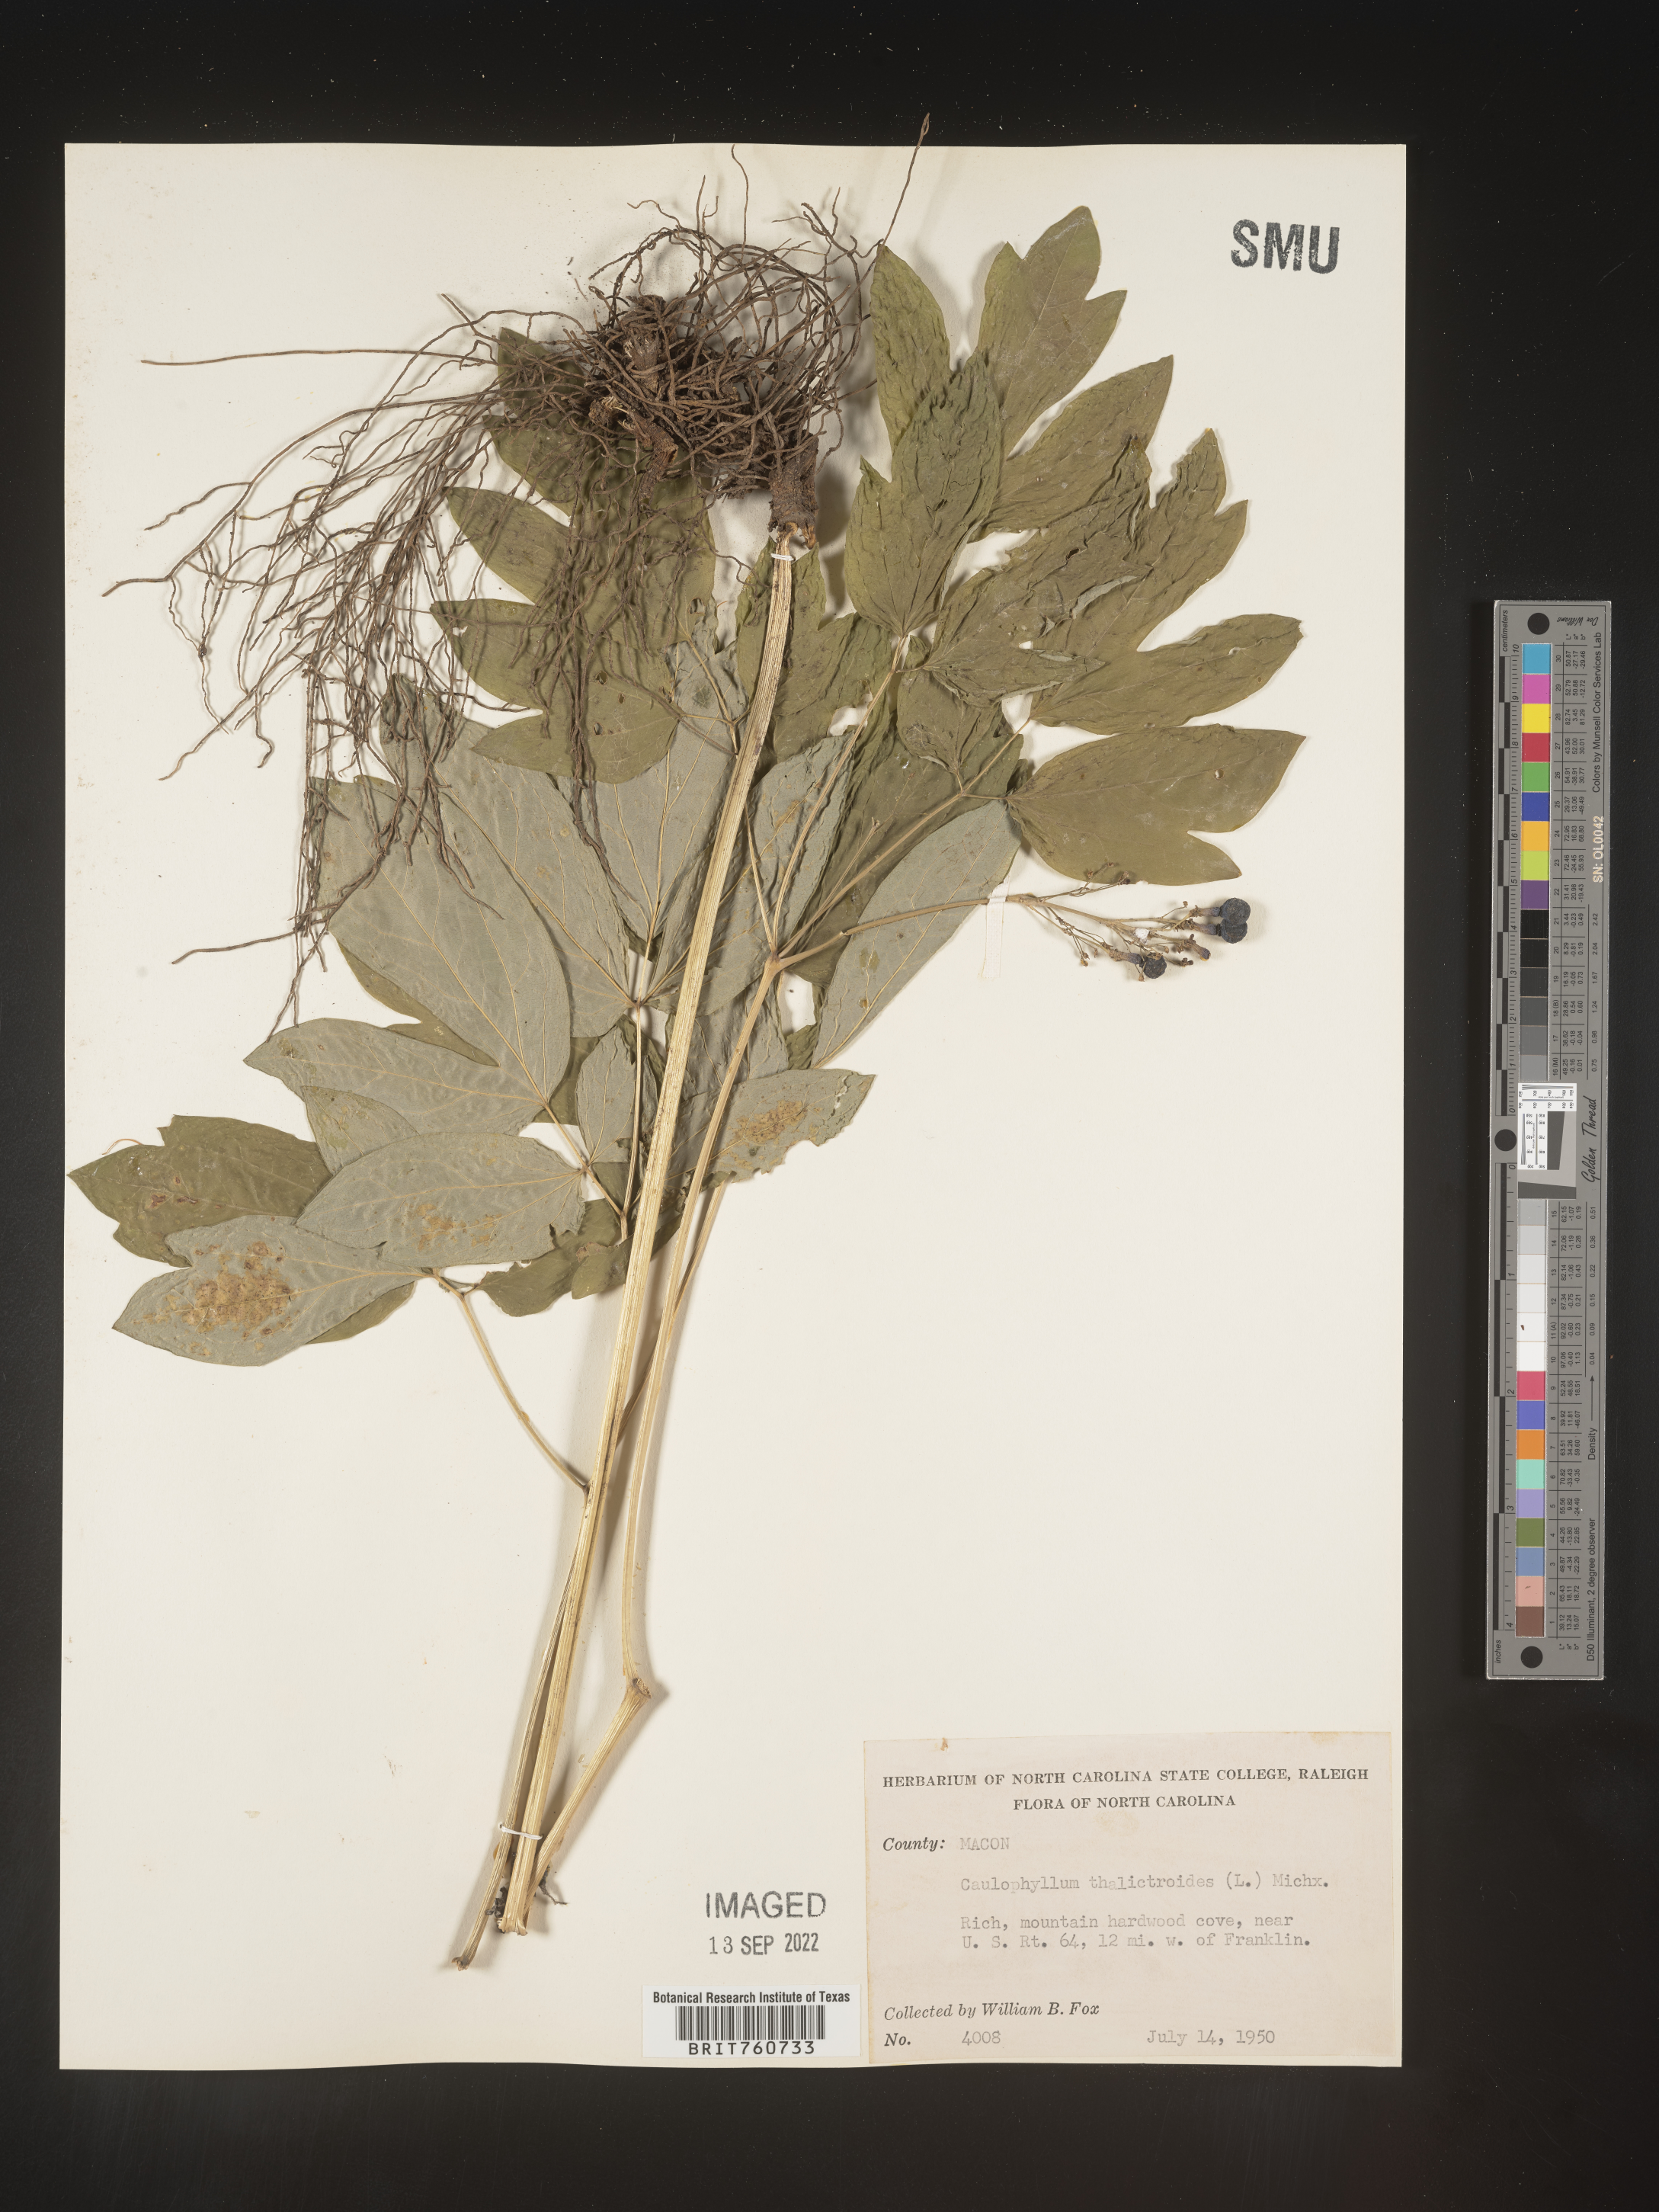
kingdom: Plantae
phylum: Tracheophyta
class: Magnoliopsida
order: Ranunculales
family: Berberidaceae
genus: Caulophyllum
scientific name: Caulophyllum thalictroides
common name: Blue cohosh
